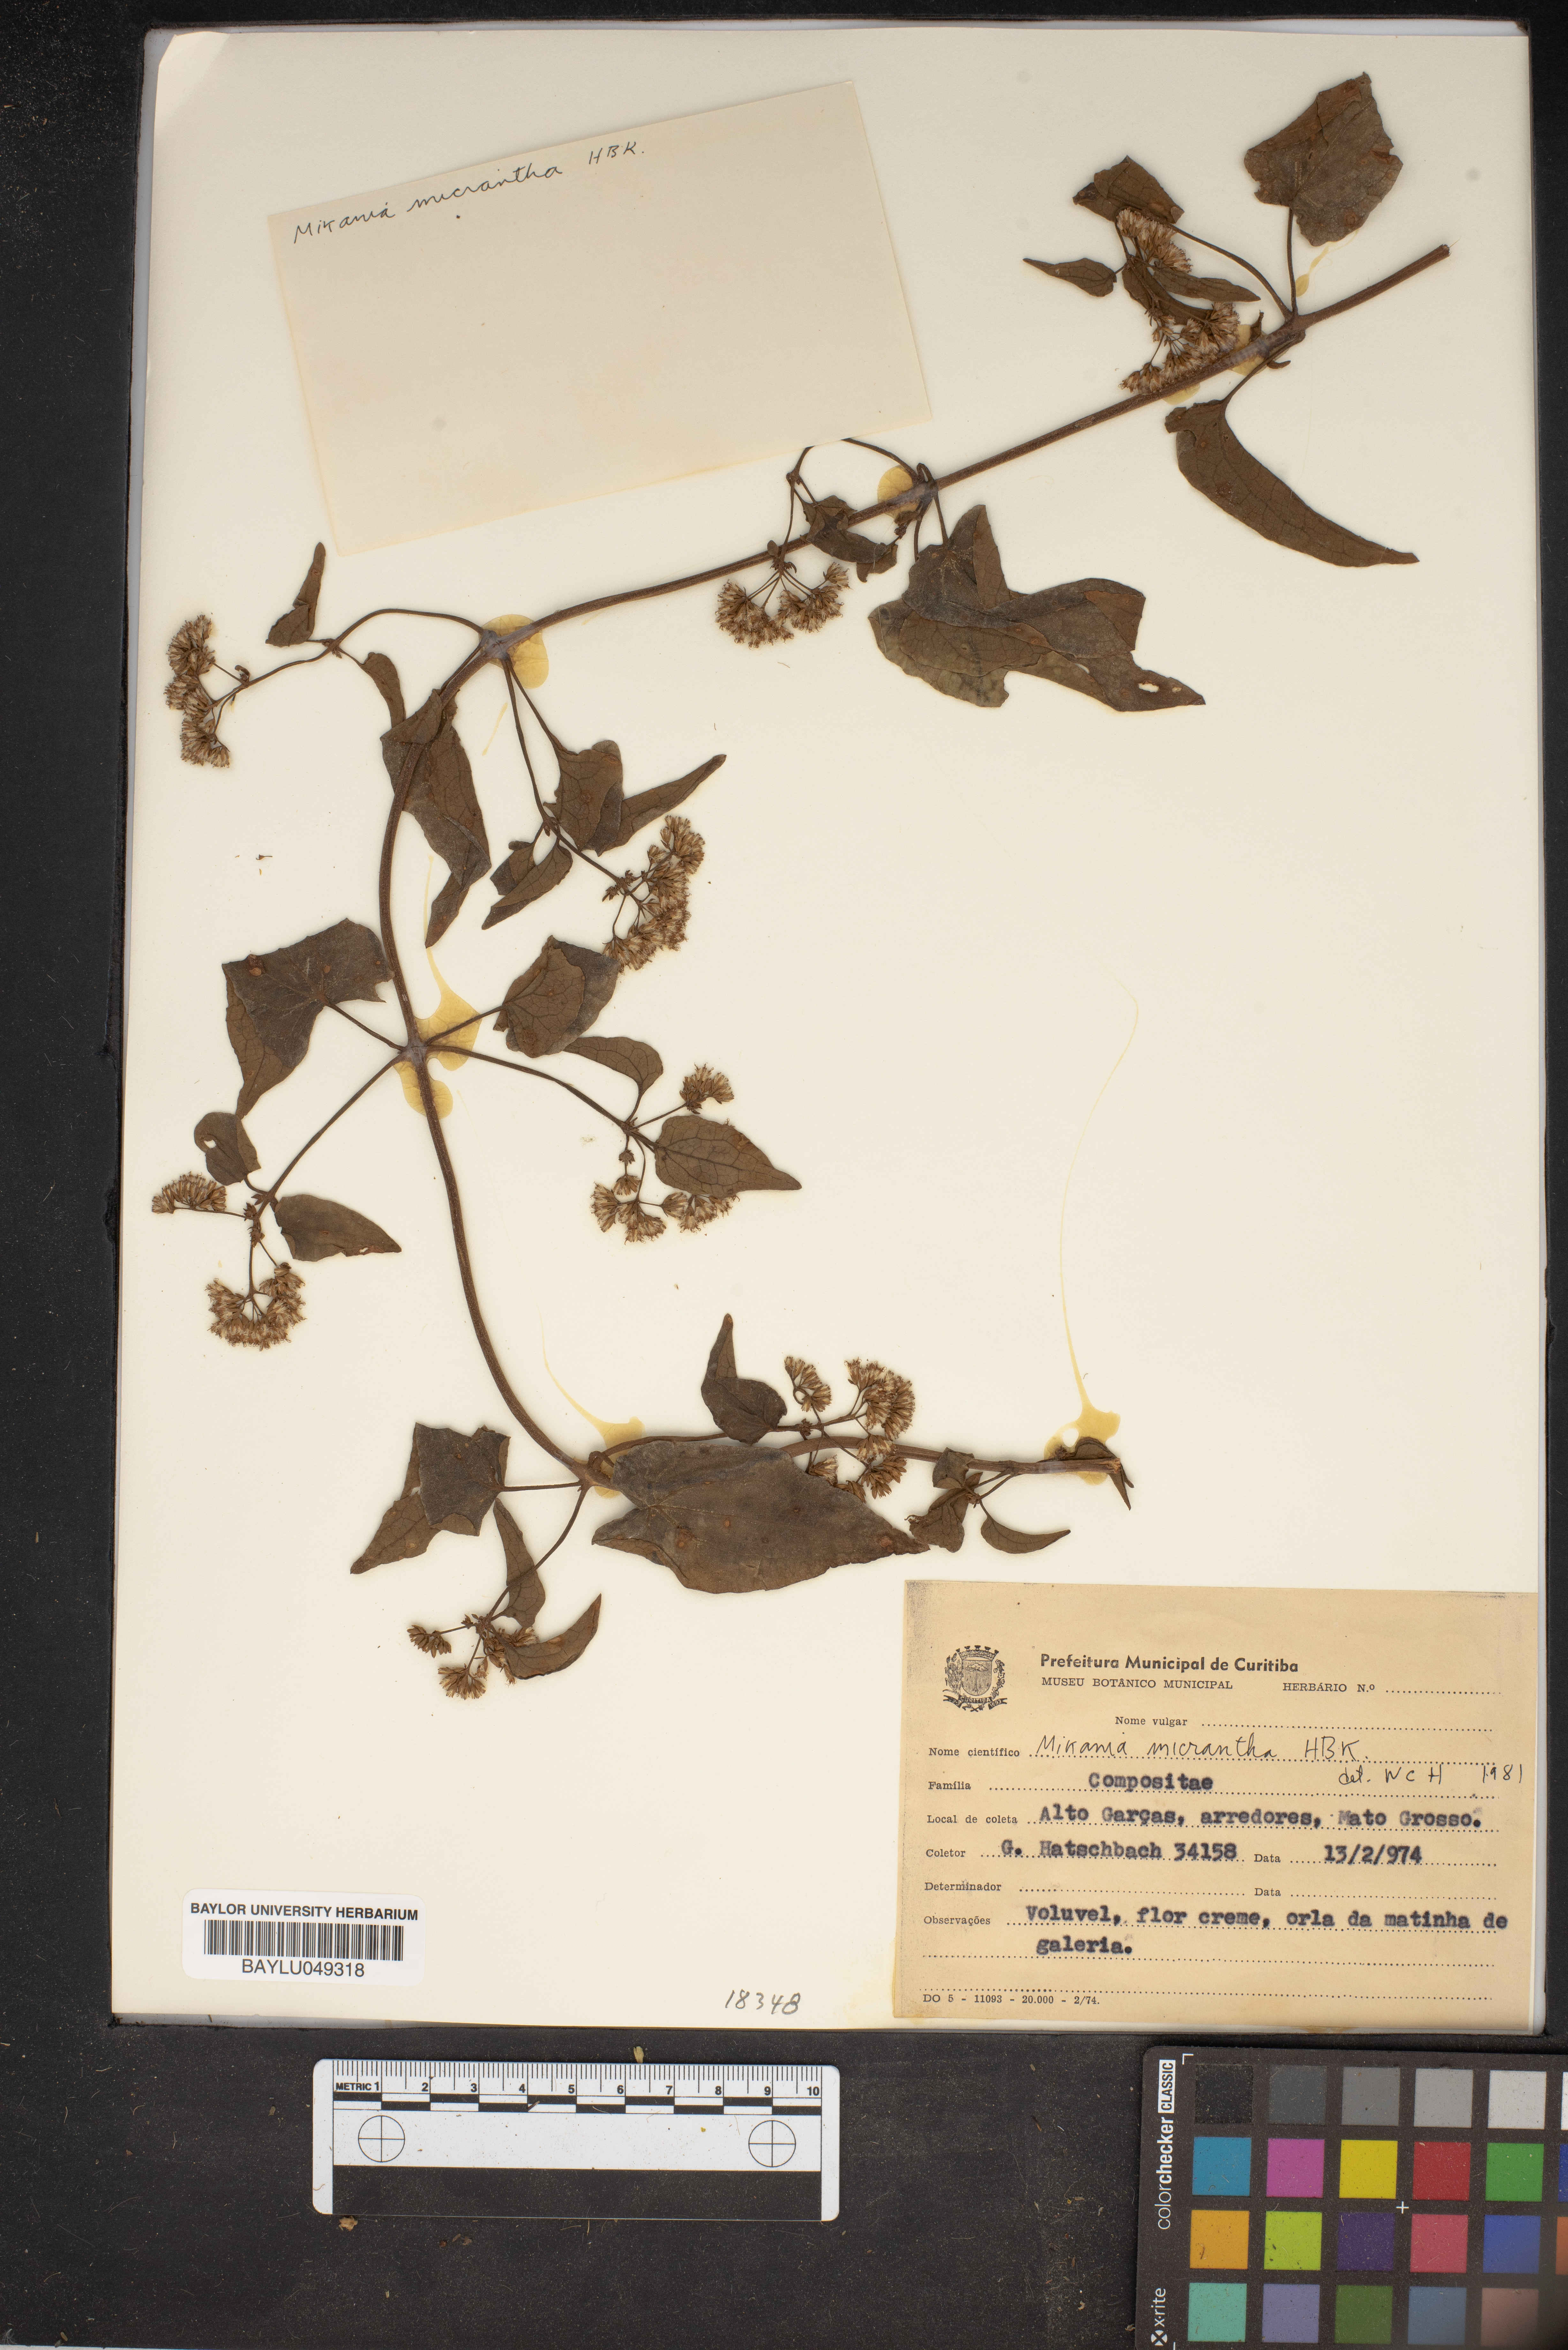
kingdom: Plantae
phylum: Tracheophyta
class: Magnoliopsida
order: Asterales
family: Asteraceae
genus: Mikania
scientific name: Mikania micrantha
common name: Mile-a-minute
